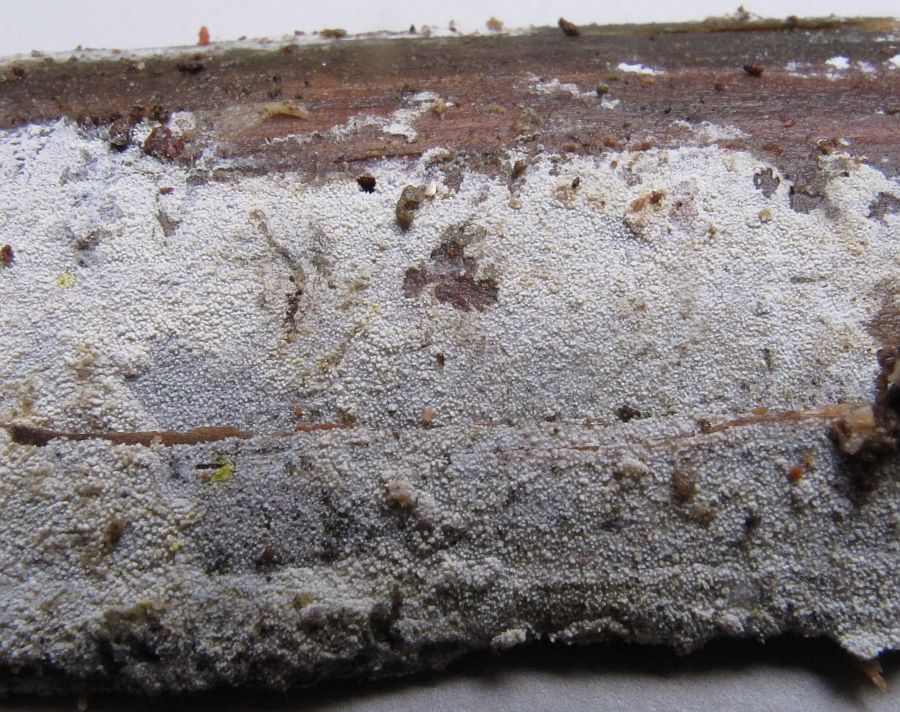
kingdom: Fungi
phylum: Basidiomycota
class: Agaricomycetes
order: Hymenochaetales
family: Schizoporaceae
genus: Xylodon
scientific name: Xylodon brevisetus
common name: tætvortet tandsvamp
